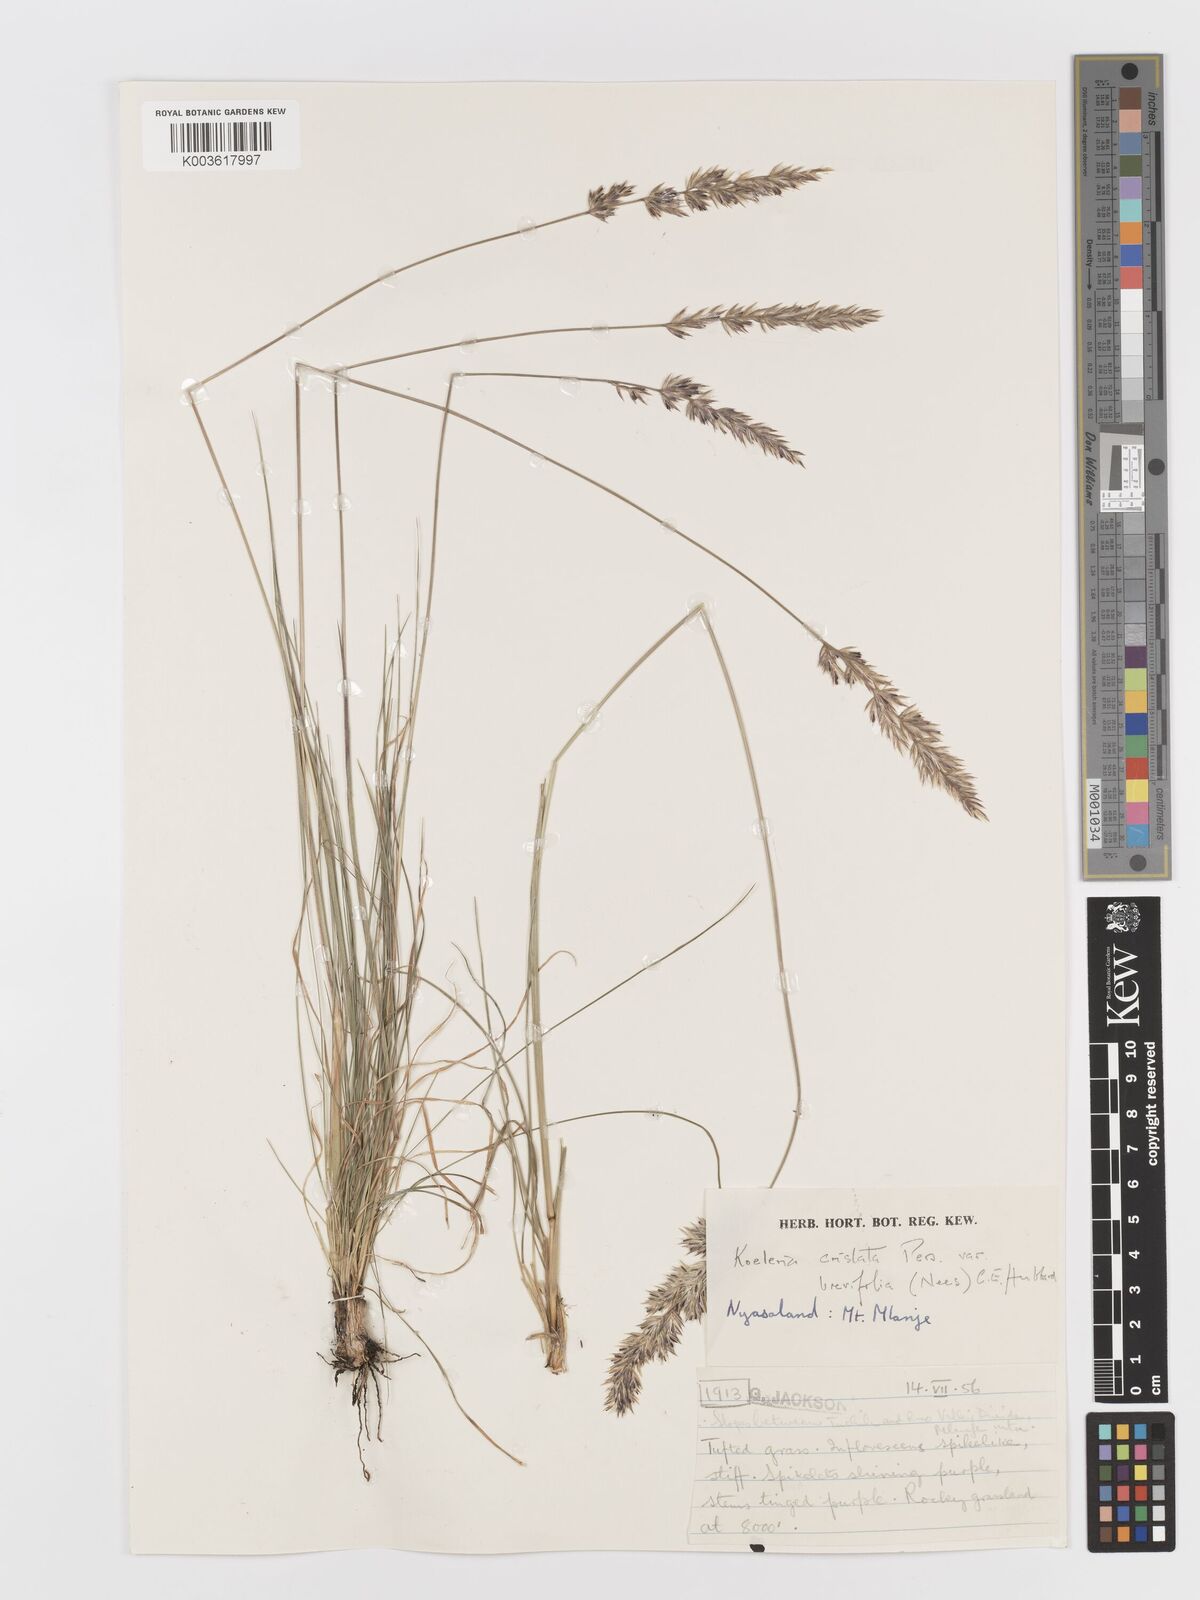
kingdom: Plantae
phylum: Tracheophyta
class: Liliopsida
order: Poales
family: Poaceae
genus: Koeleria
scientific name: Koeleria capensis
